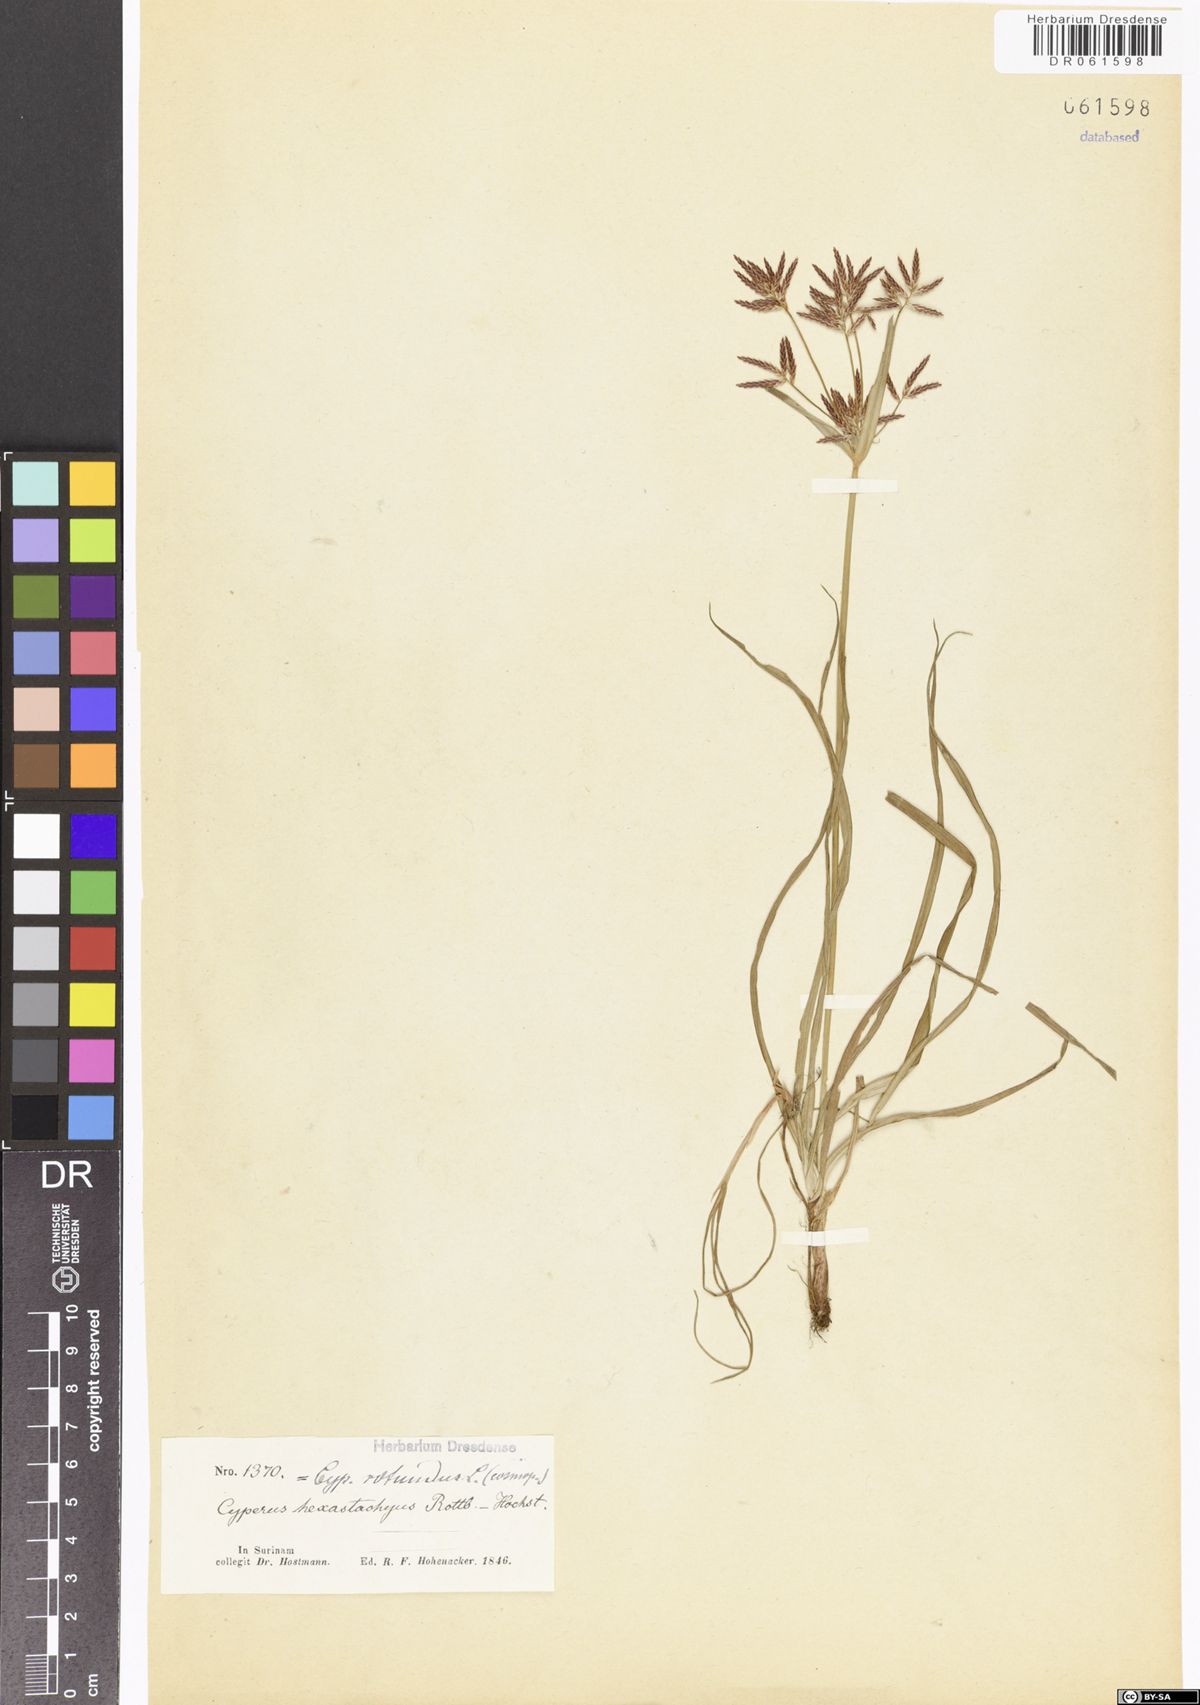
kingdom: Plantae
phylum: Tracheophyta
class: Liliopsida
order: Poales
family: Cyperaceae
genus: Cyperus
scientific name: Cyperus rotundus
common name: Nutgrass
